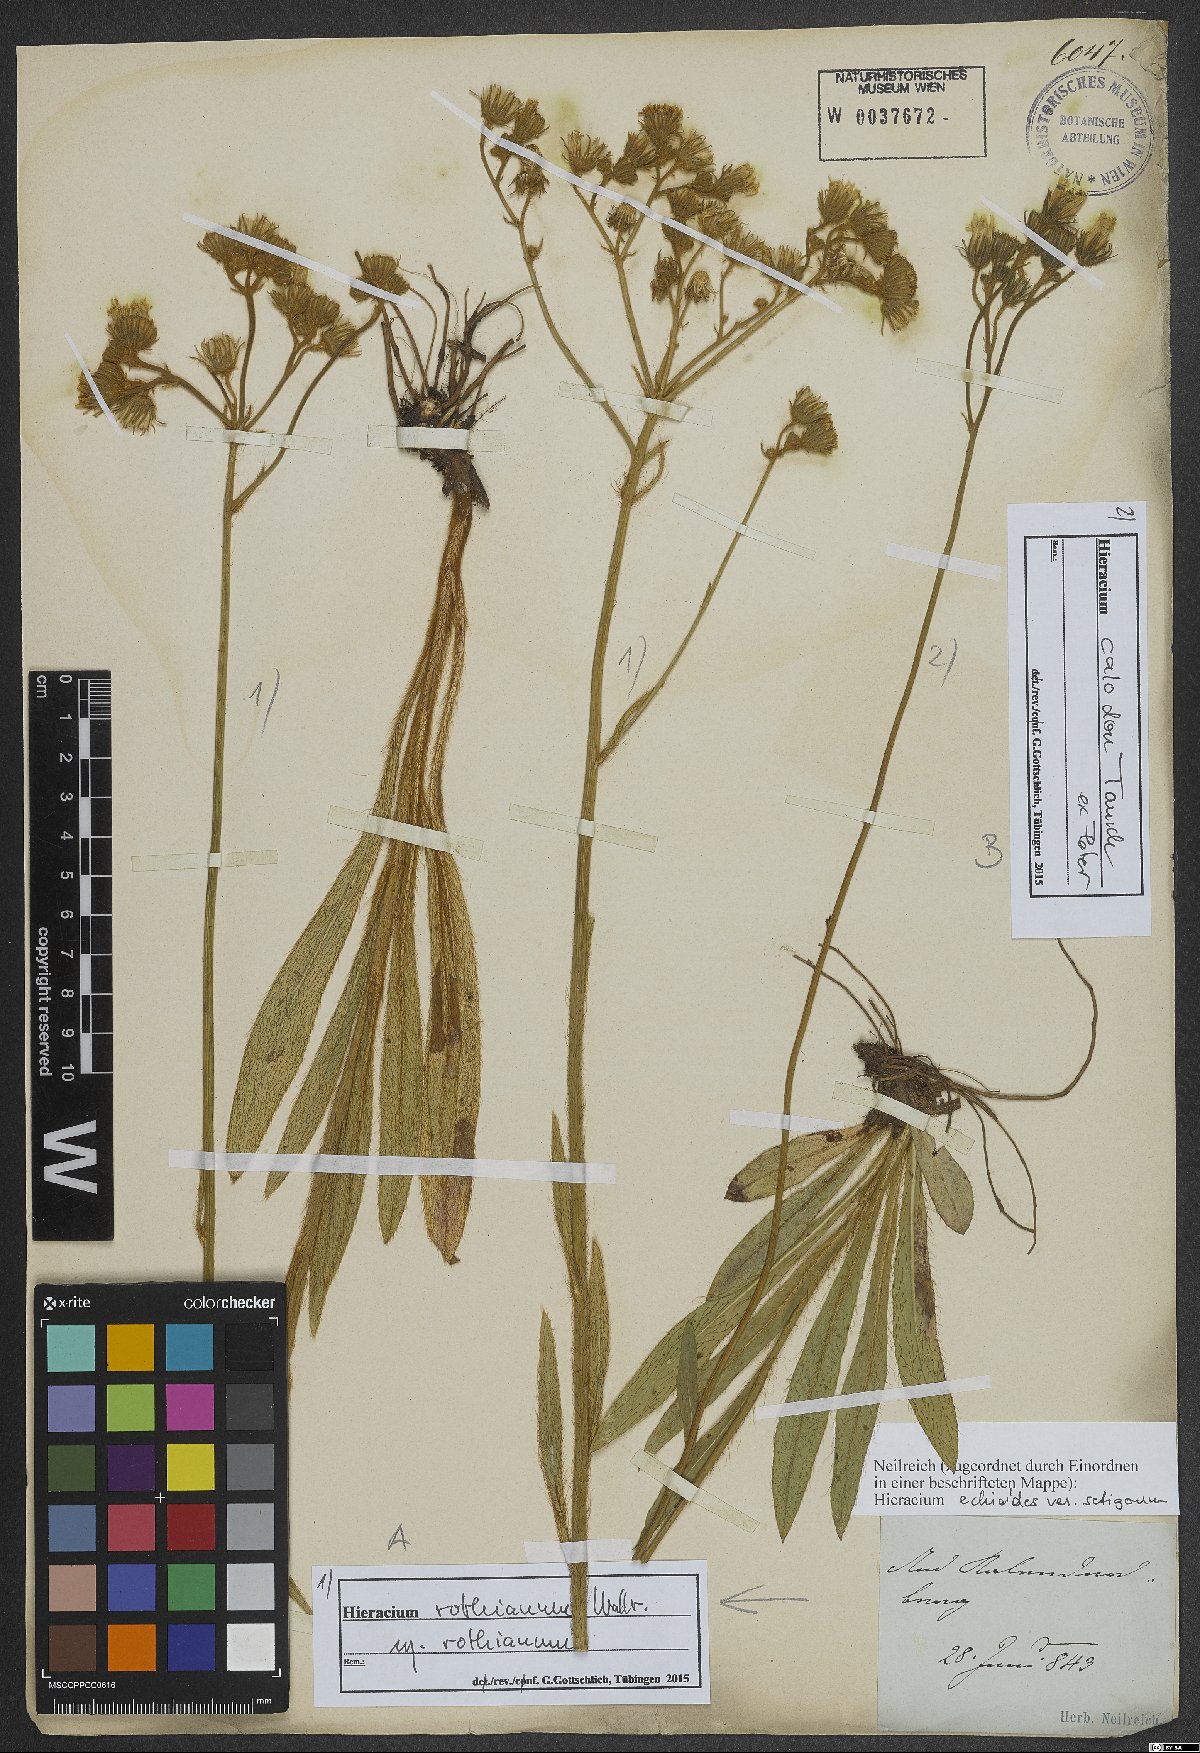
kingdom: Plantae
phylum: Tracheophyta
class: Magnoliopsida
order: Asterales
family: Asteraceae
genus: Pilosella
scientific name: Pilosella rothiana
